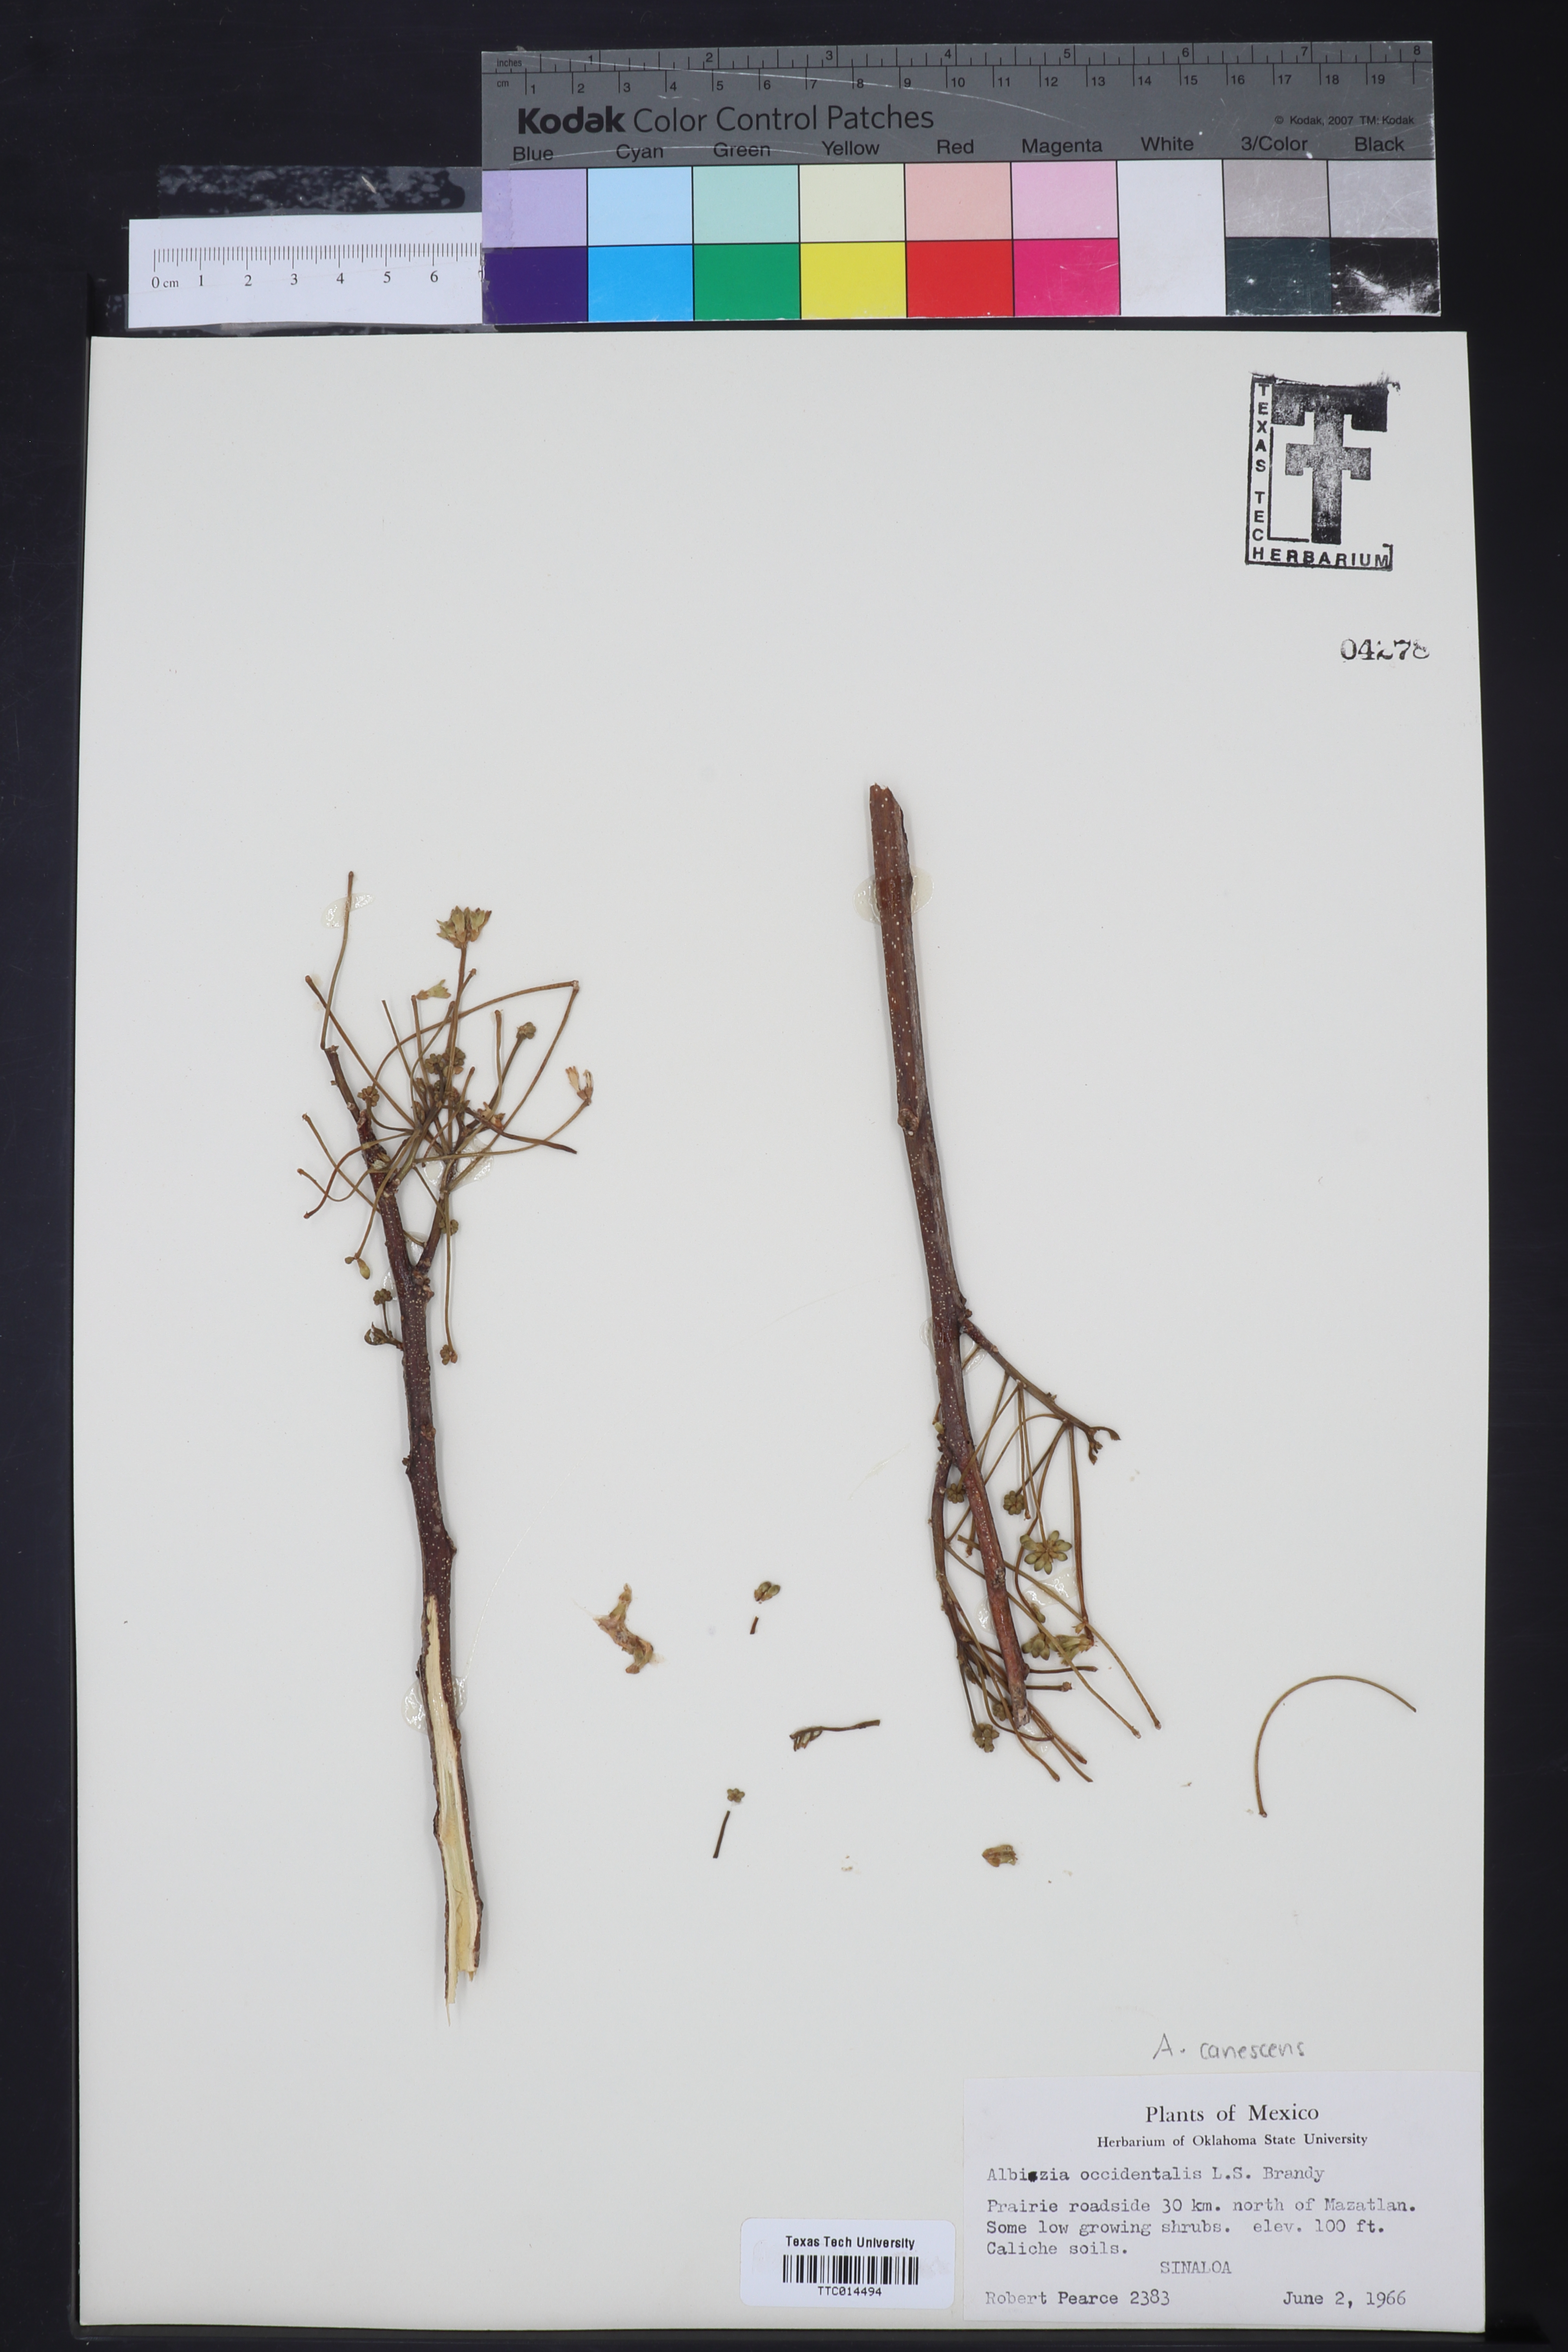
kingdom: Plantae
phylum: Tracheophyta
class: Magnoliopsida
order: Fabales
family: Fabaceae
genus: Albizia
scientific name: Albizia occidentalis
